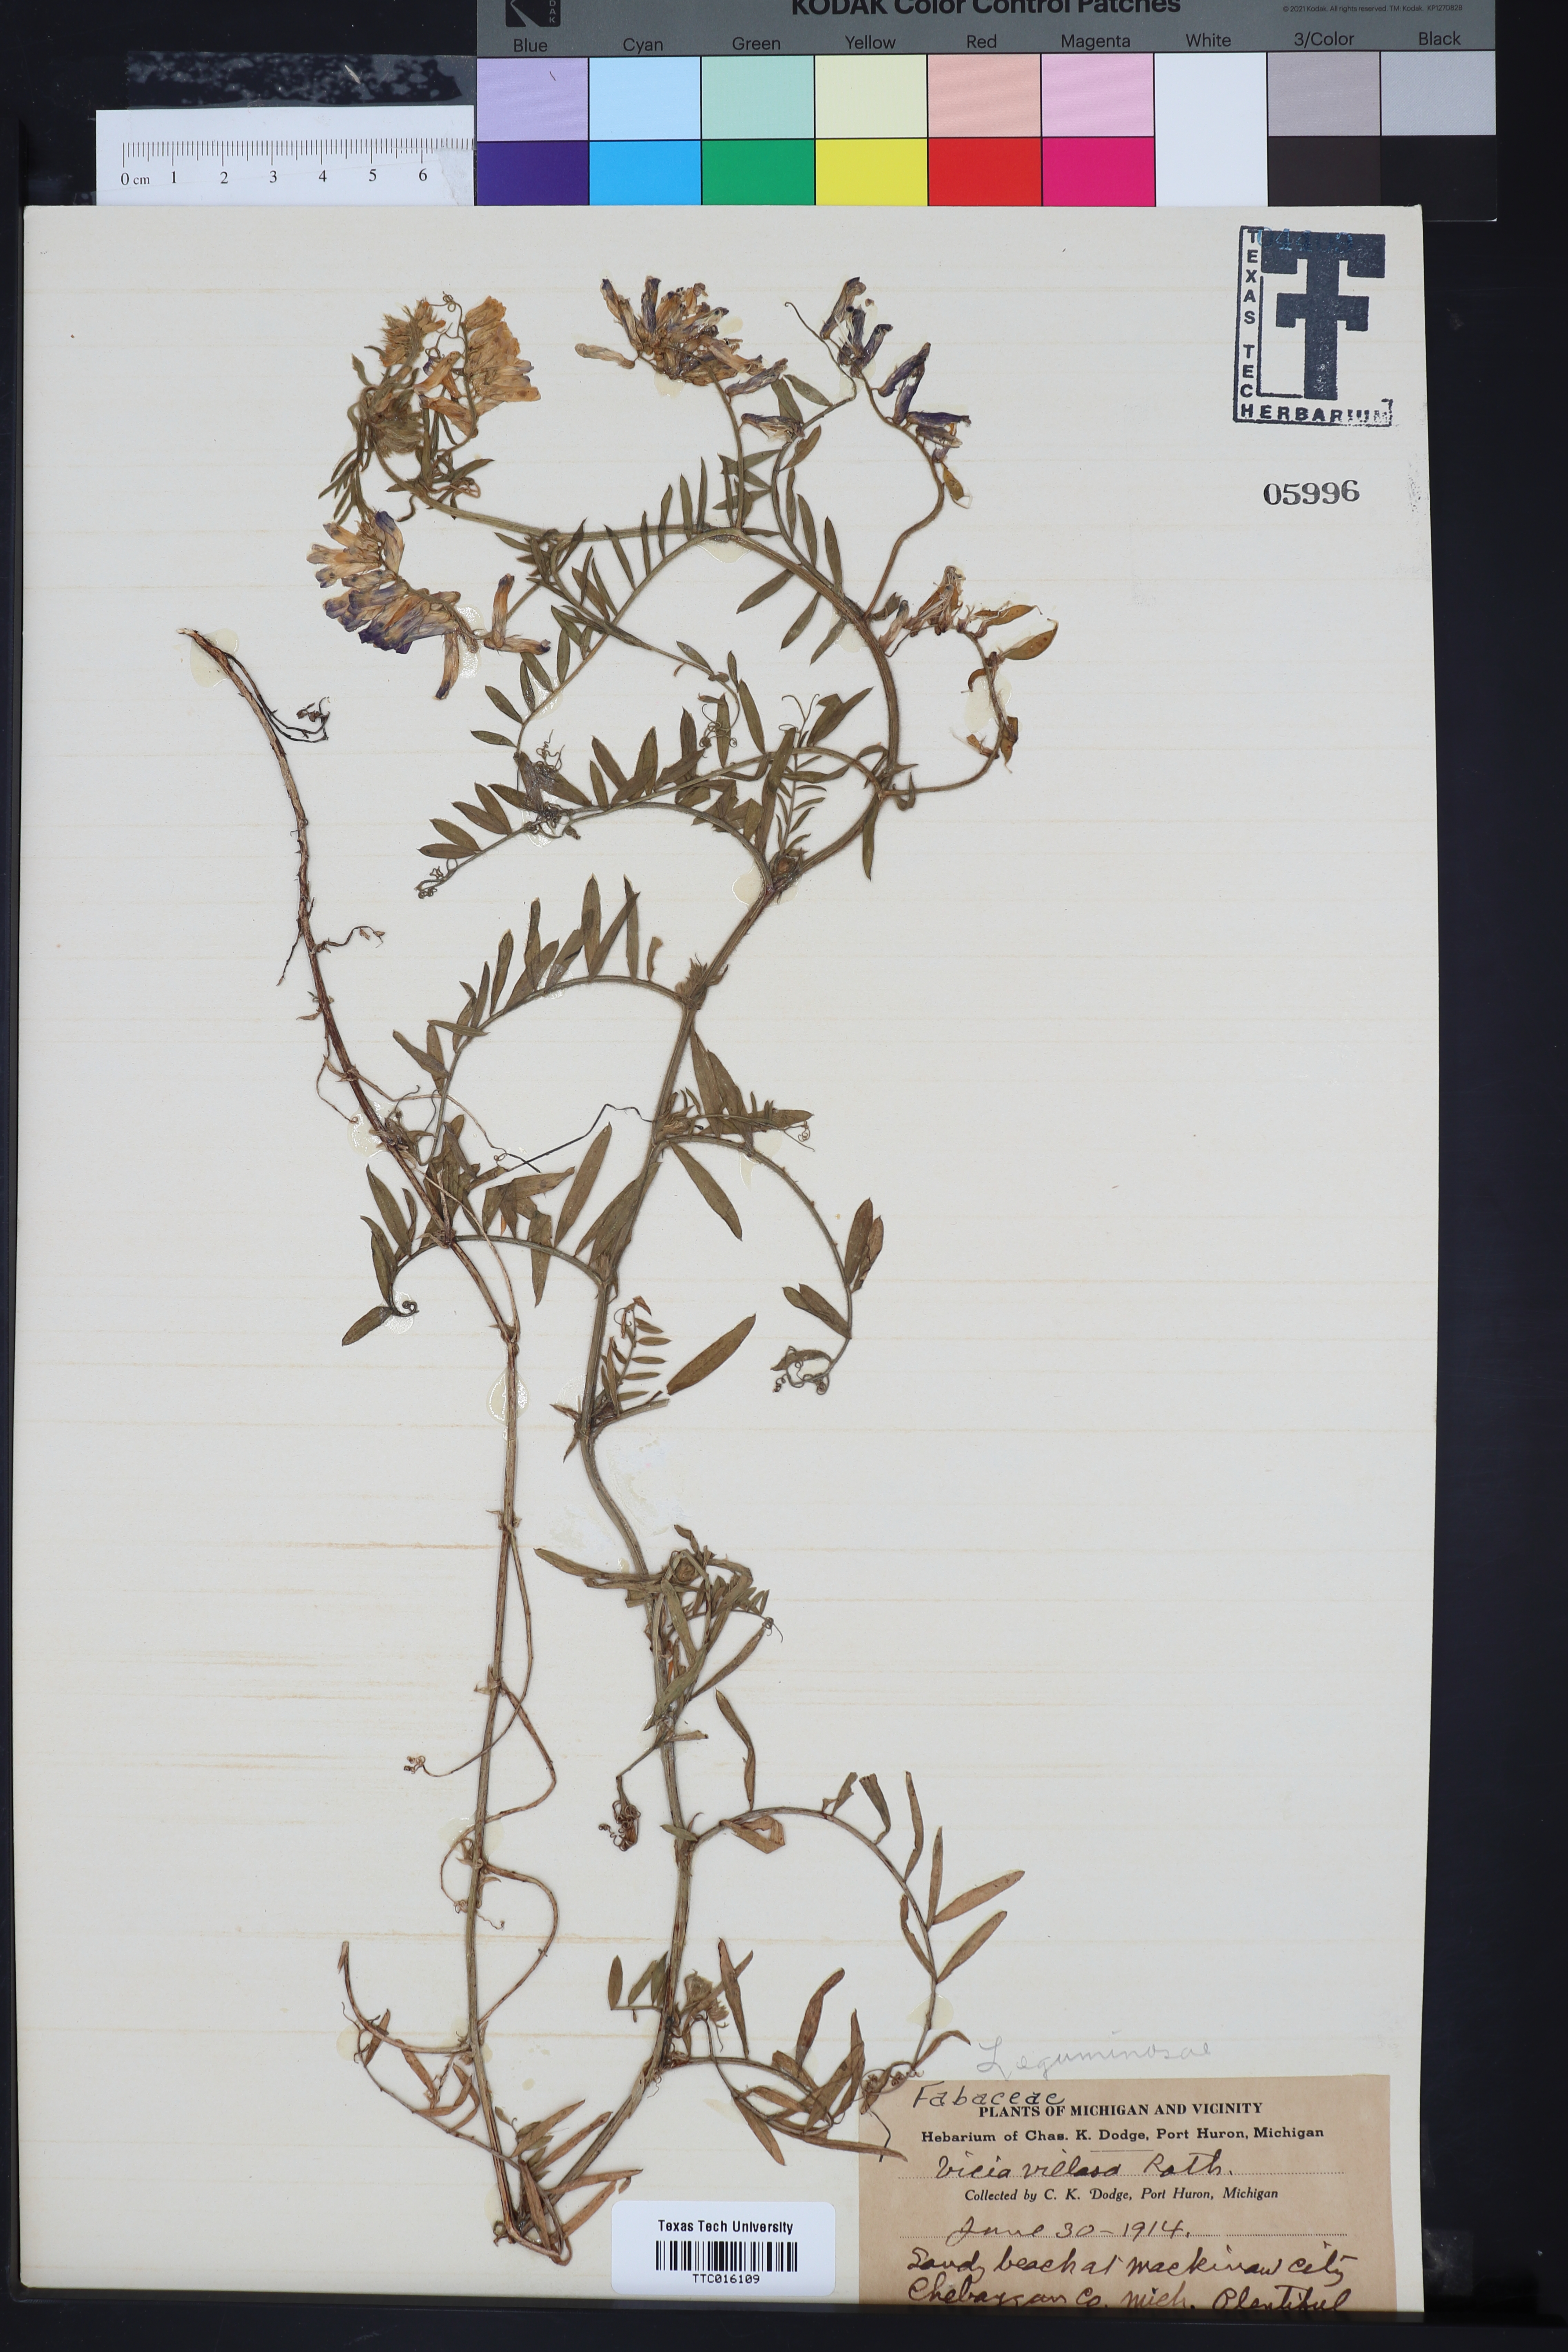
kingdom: Plantae
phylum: Tracheophyta
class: Magnoliopsida
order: Fabales
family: Fabaceae
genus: Vicia
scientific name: Vicia villosa
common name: Fodder vetch
